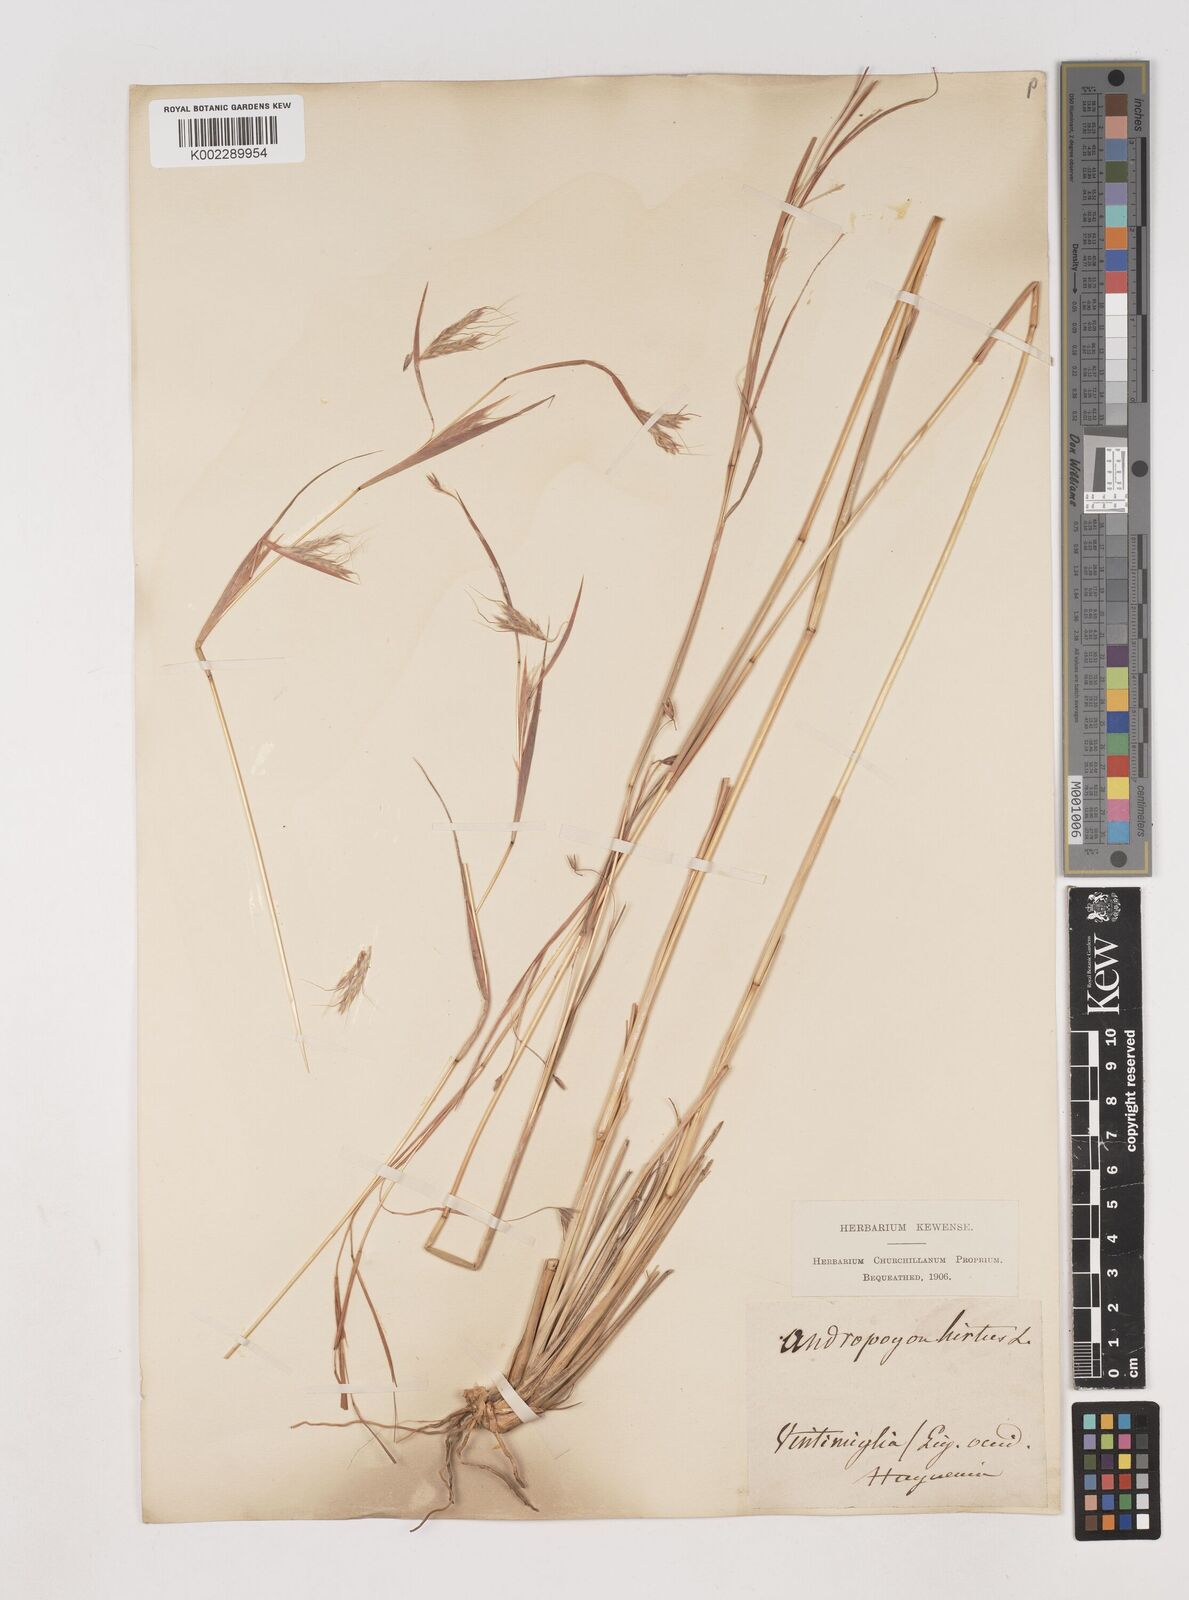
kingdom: Plantae
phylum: Tracheophyta
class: Liliopsida
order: Poales
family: Poaceae
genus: Hyparrhenia
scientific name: Hyparrhenia hirta
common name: Thatching grass
